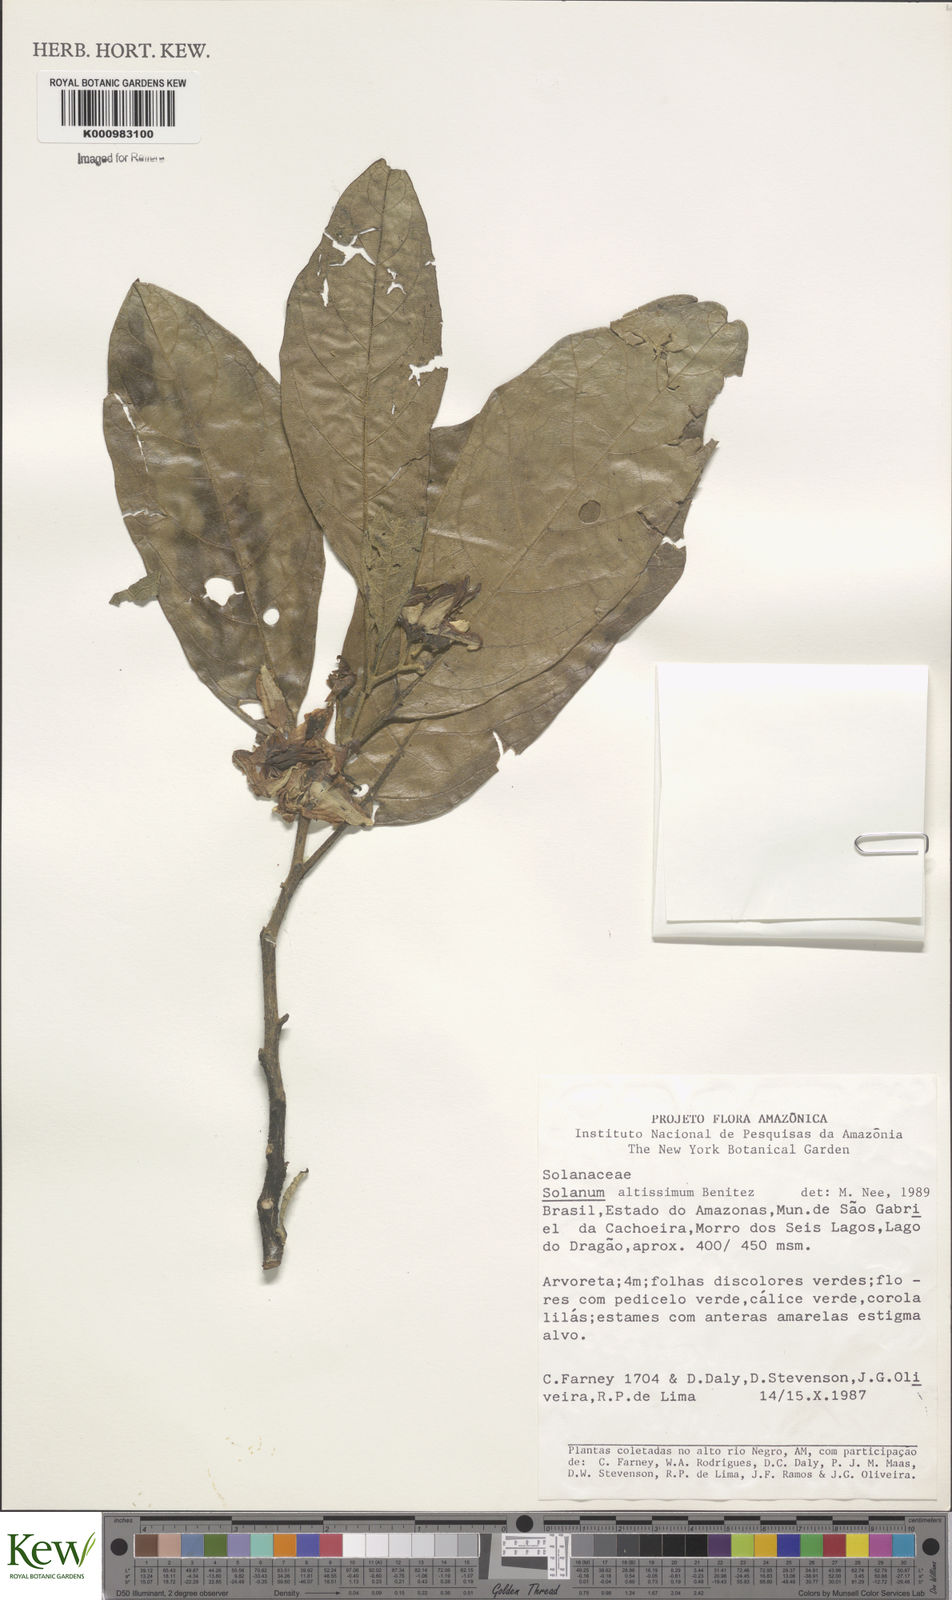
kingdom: Plantae
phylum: Tracheophyta
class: Magnoliopsida
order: Solanales
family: Solanaceae
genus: Solanum
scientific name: Solanum kioniotrichum
